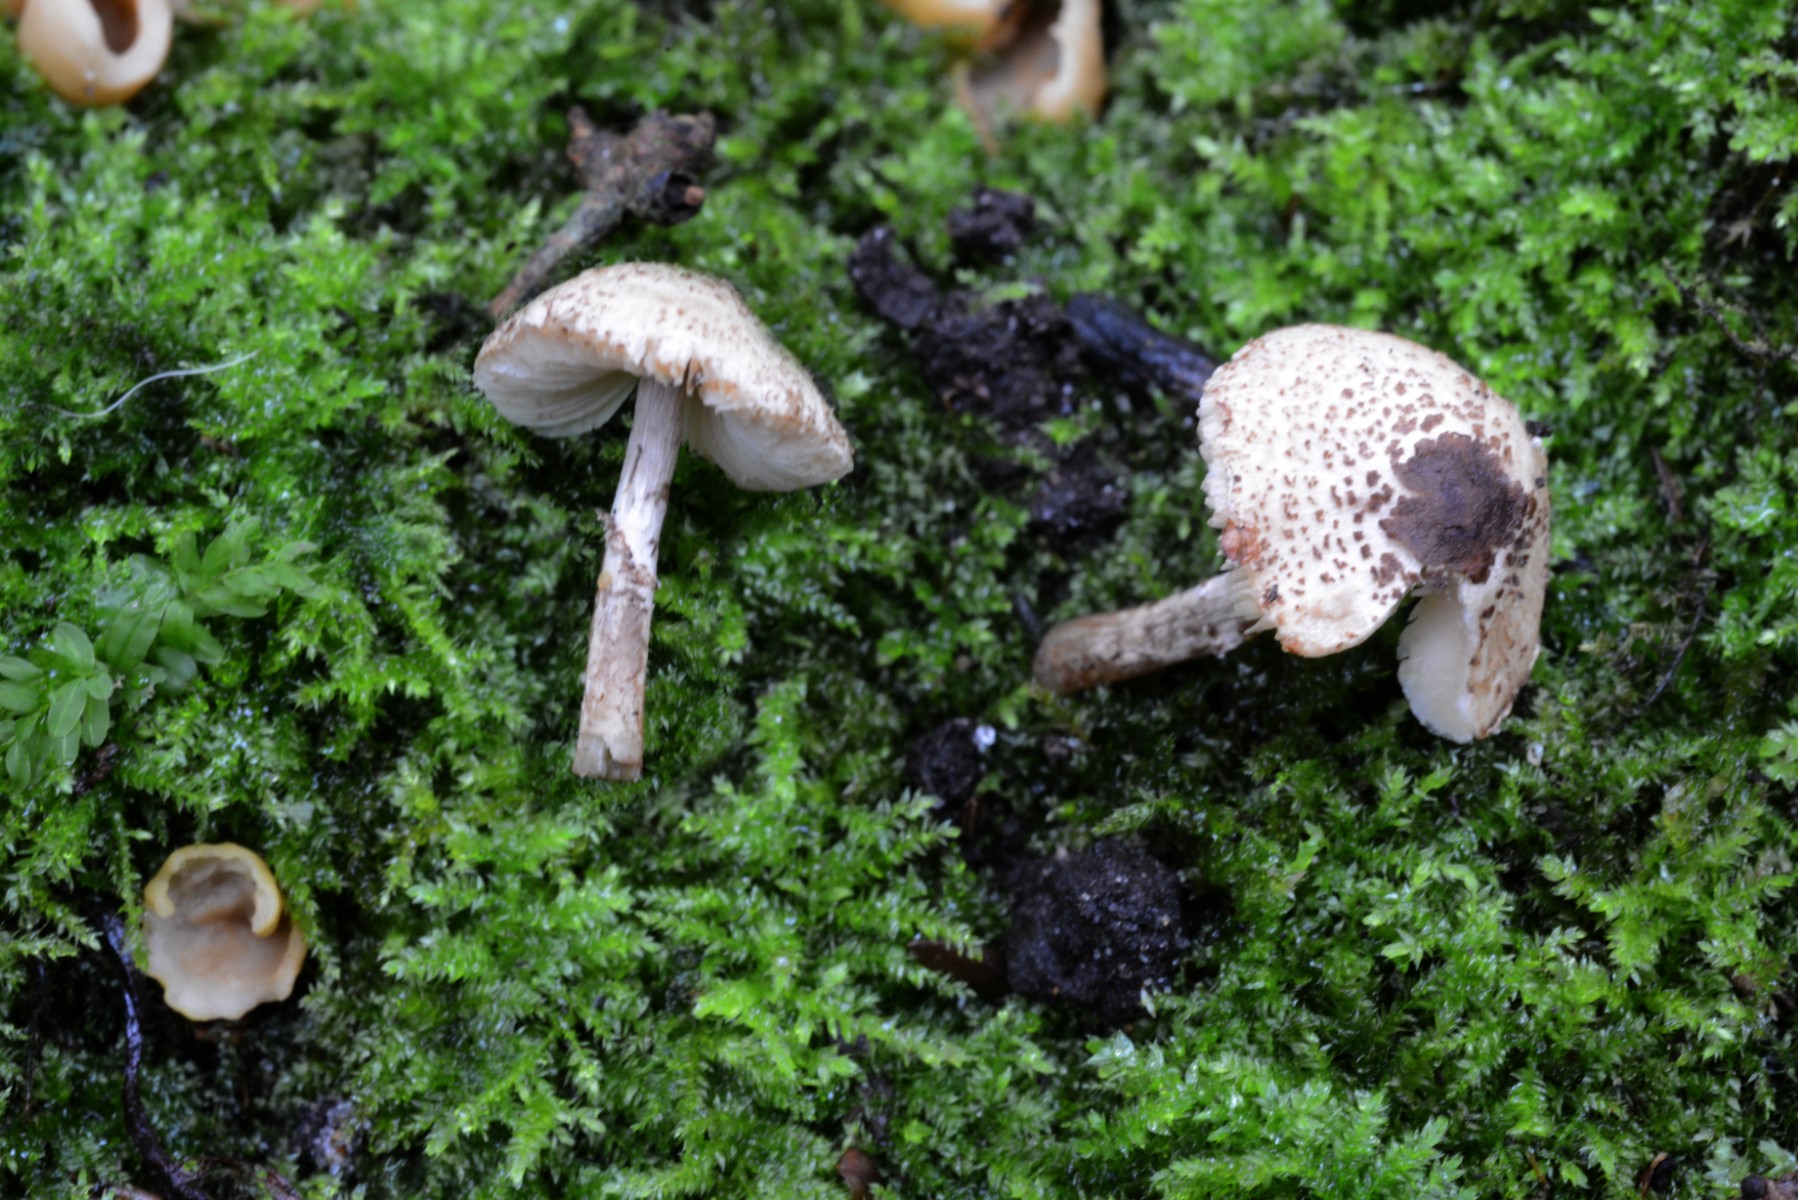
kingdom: Fungi
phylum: Basidiomycota
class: Agaricomycetes
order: Agaricales
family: Agaricaceae
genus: Lepiota
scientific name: Lepiota felina
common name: sortskællet parasolhat
